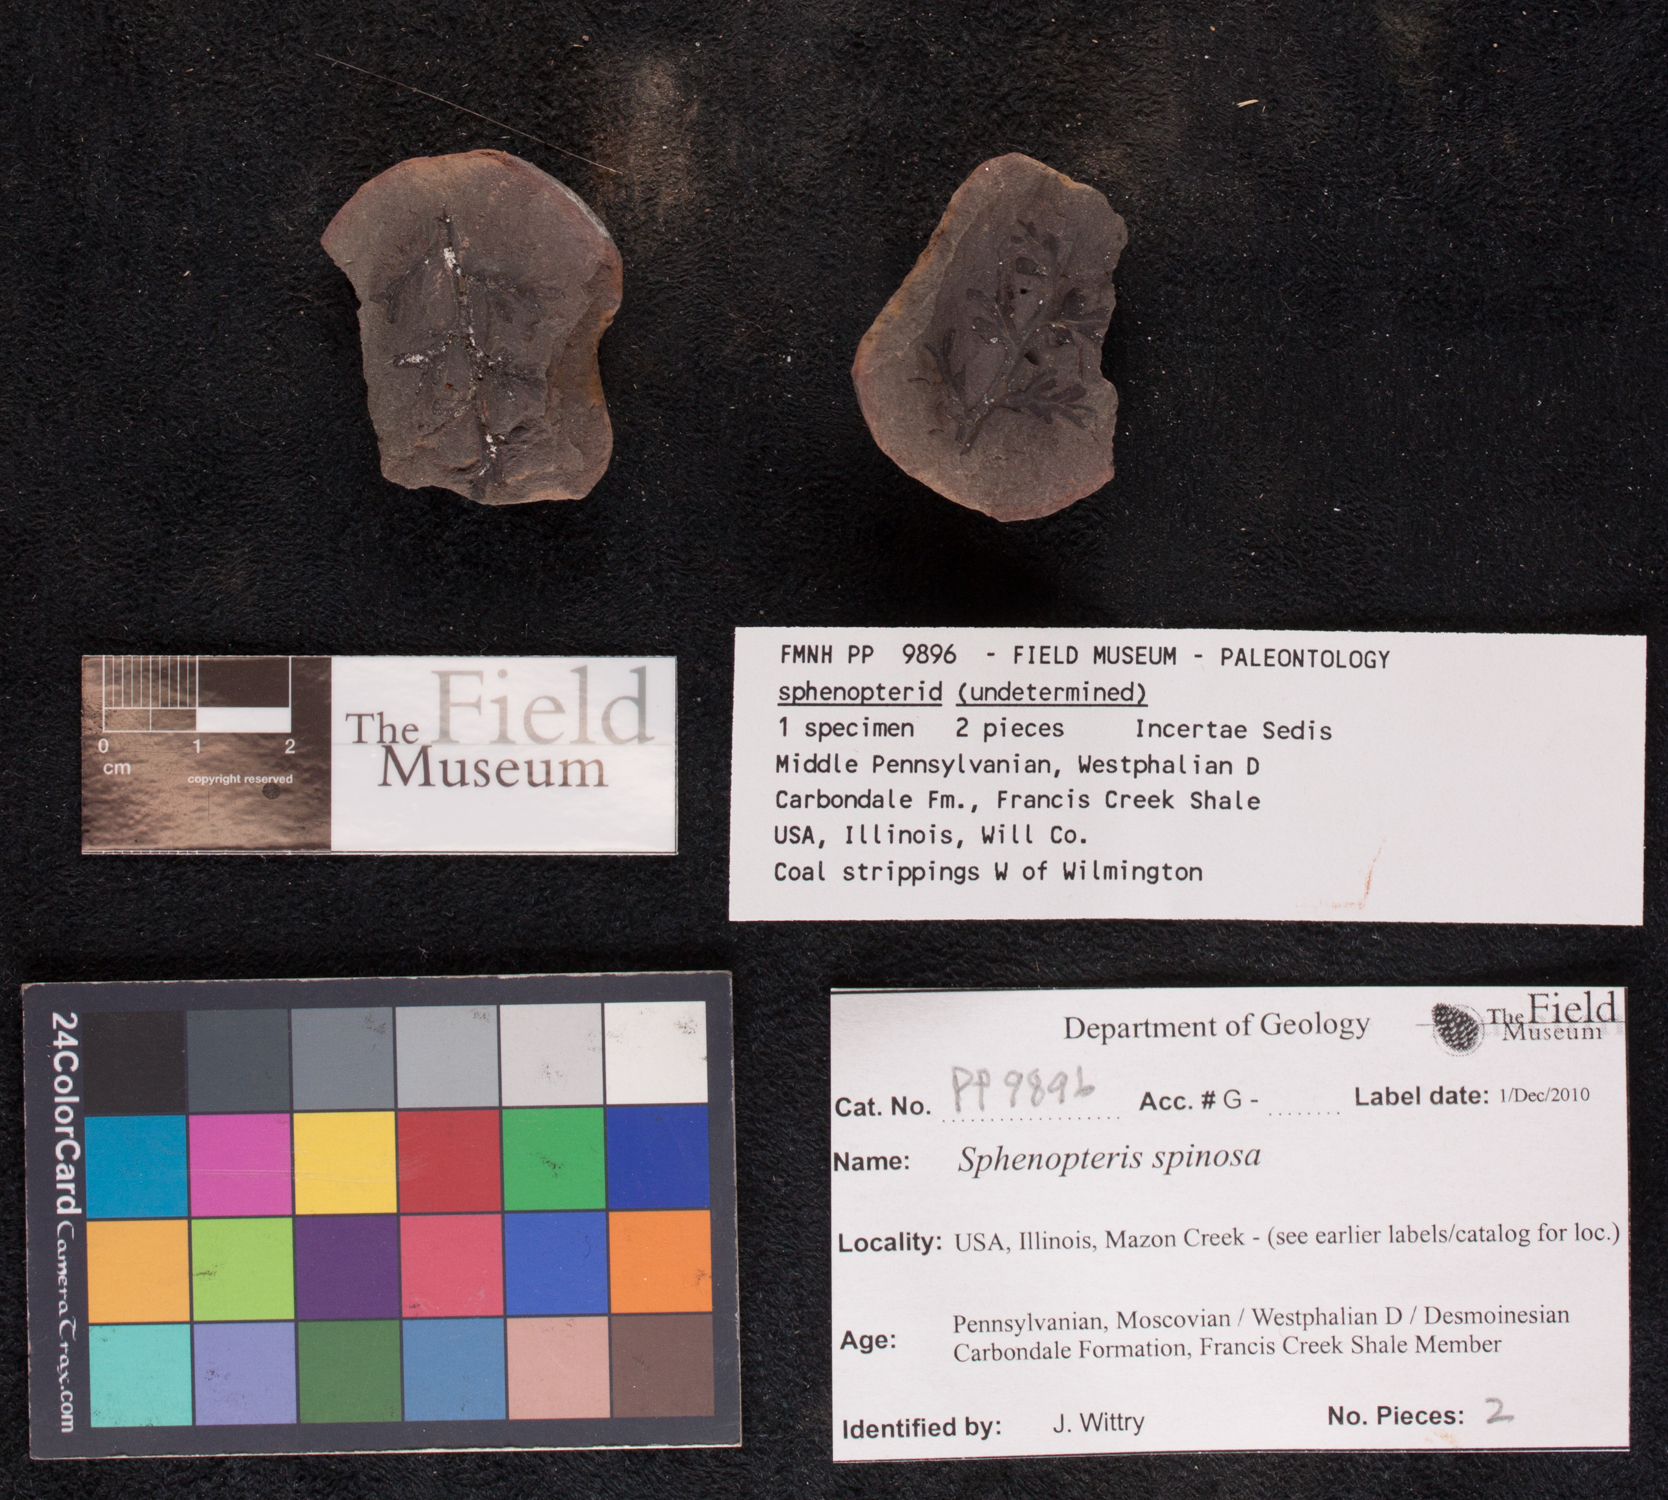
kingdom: Plantae
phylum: Tracheophyta
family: Lyginopteridaceae
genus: Sphenopteris
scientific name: Sphenopteris
